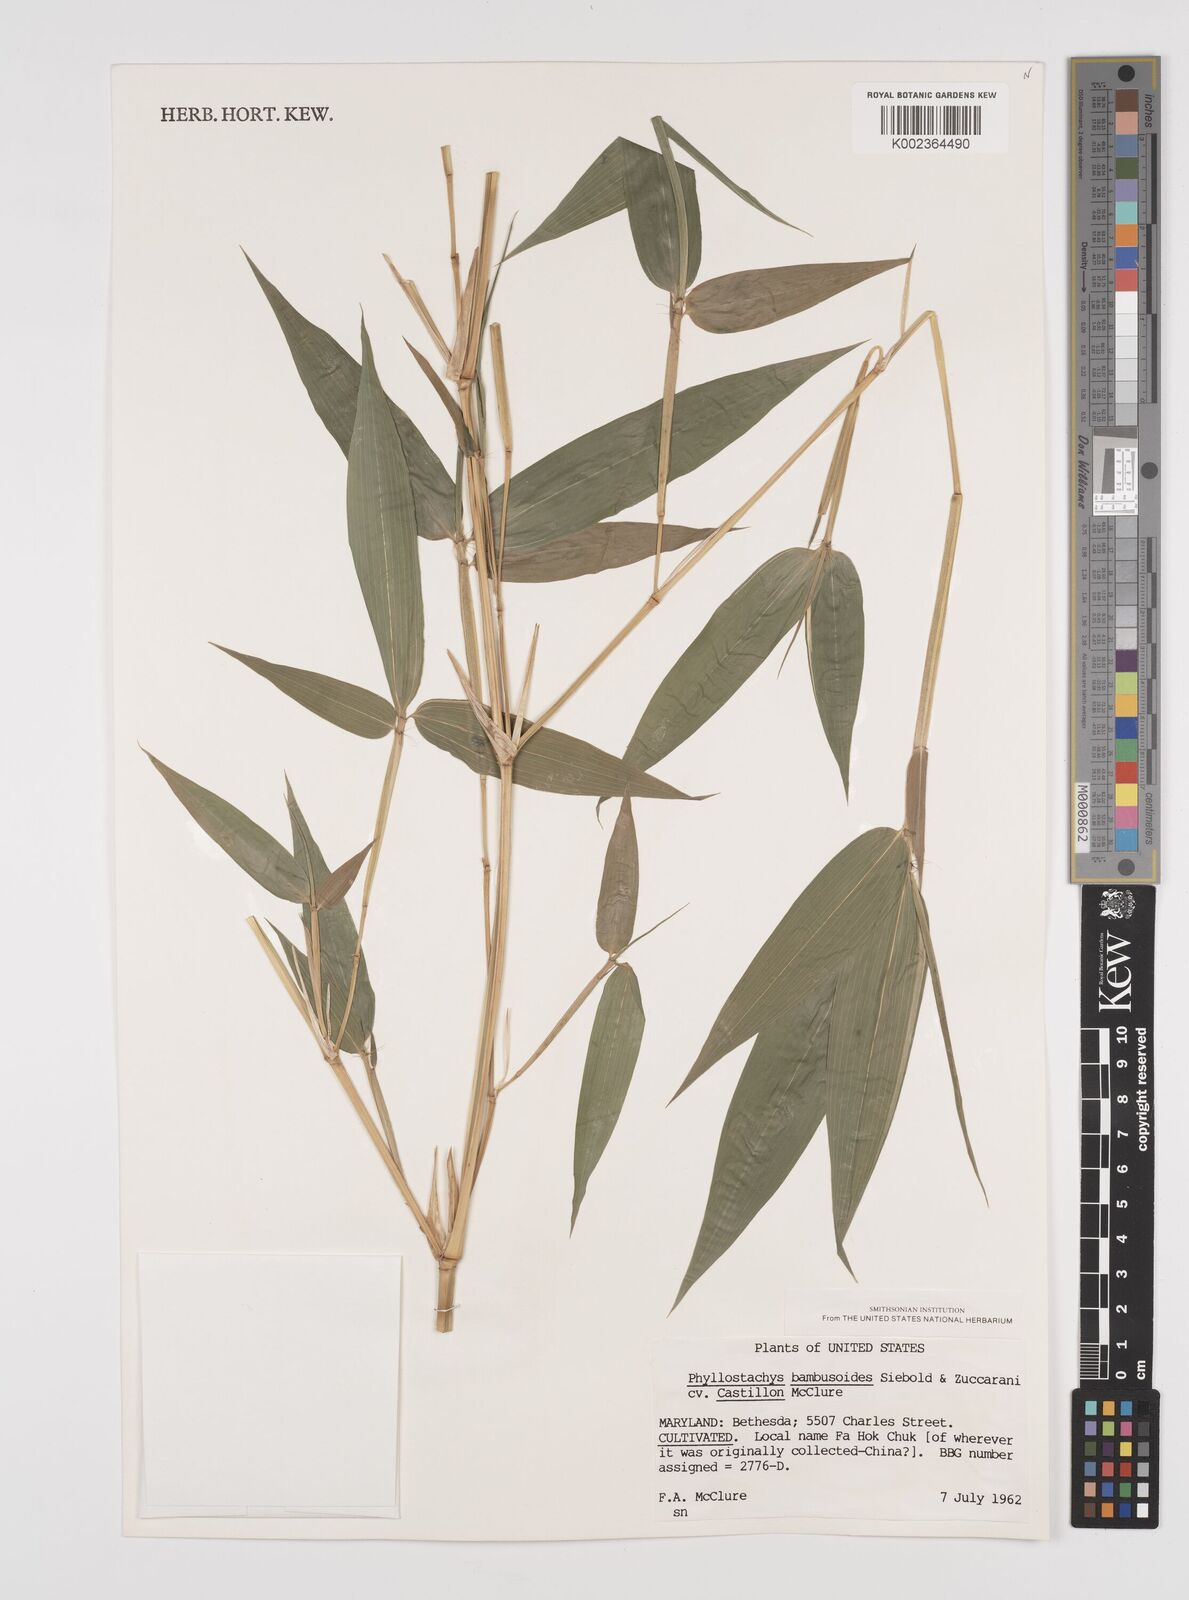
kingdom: Plantae
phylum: Tracheophyta
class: Liliopsida
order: Poales
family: Poaceae
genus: Phyllostachys
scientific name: Phyllostachys reticulata
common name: Bamboo
